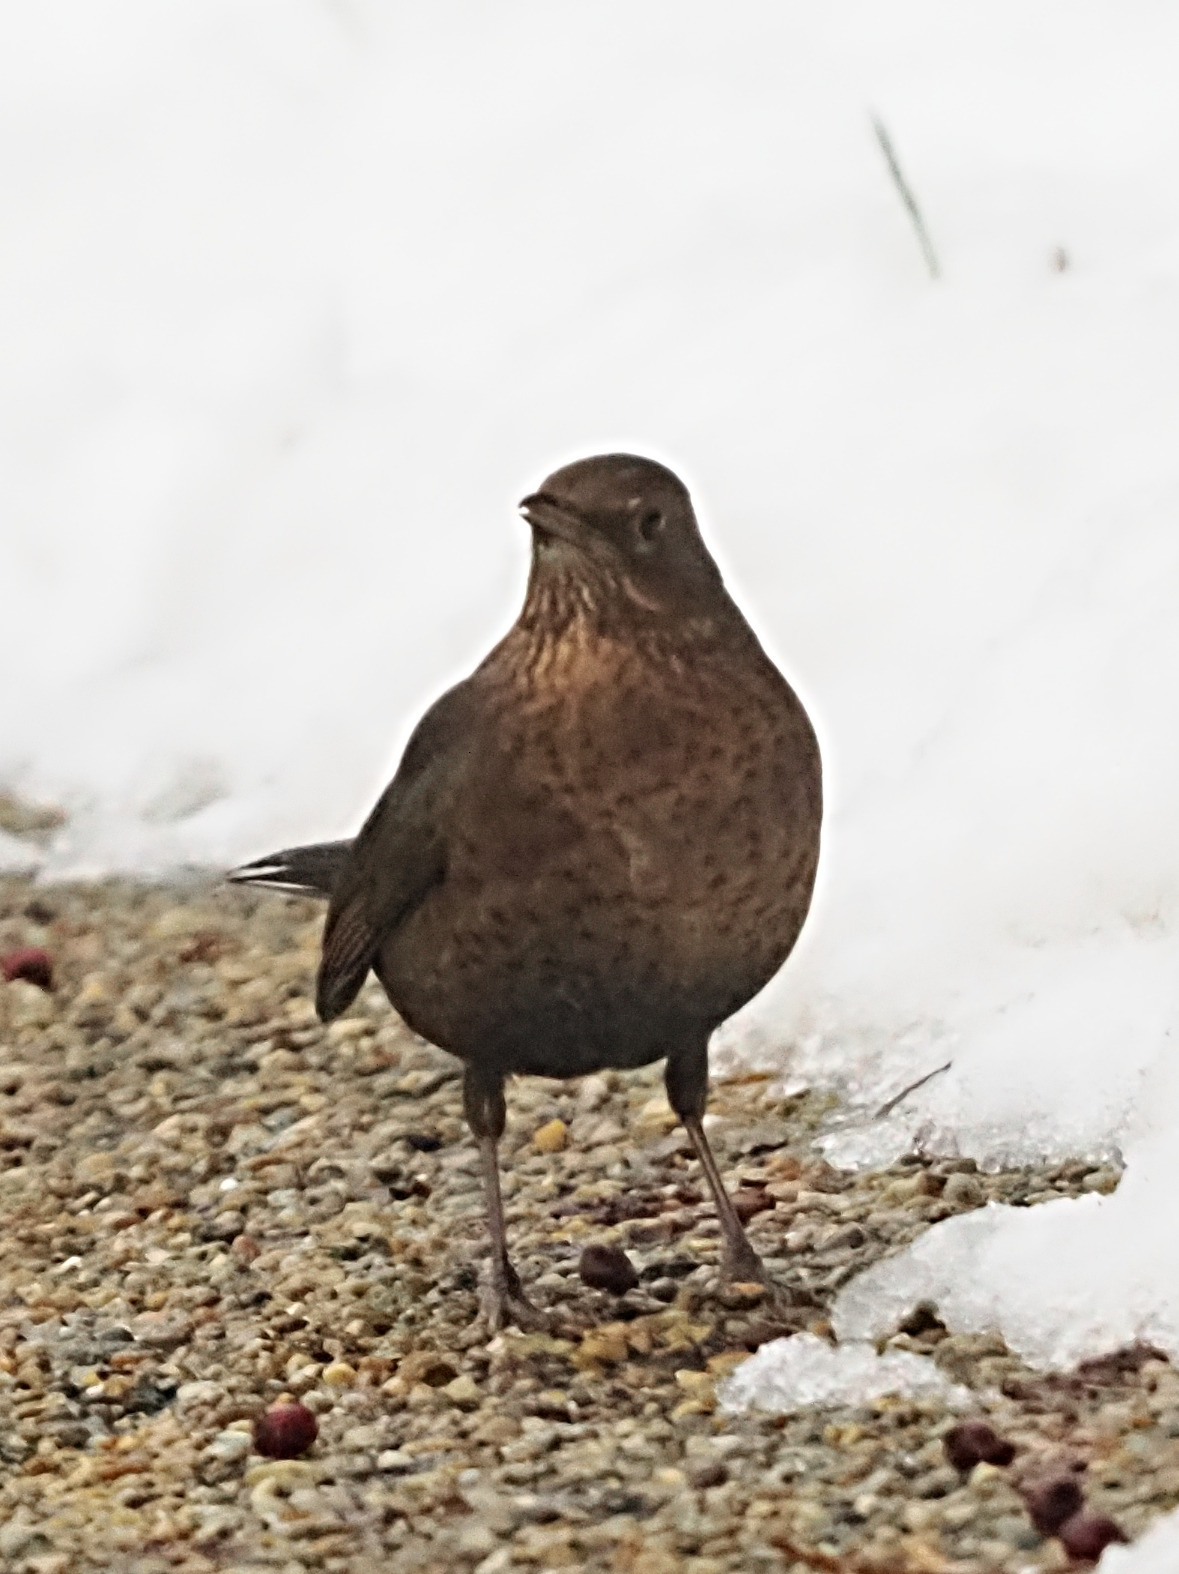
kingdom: Animalia
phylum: Chordata
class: Aves
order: Passeriformes
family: Turdidae
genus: Turdus
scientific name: Turdus merula
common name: Solsort
